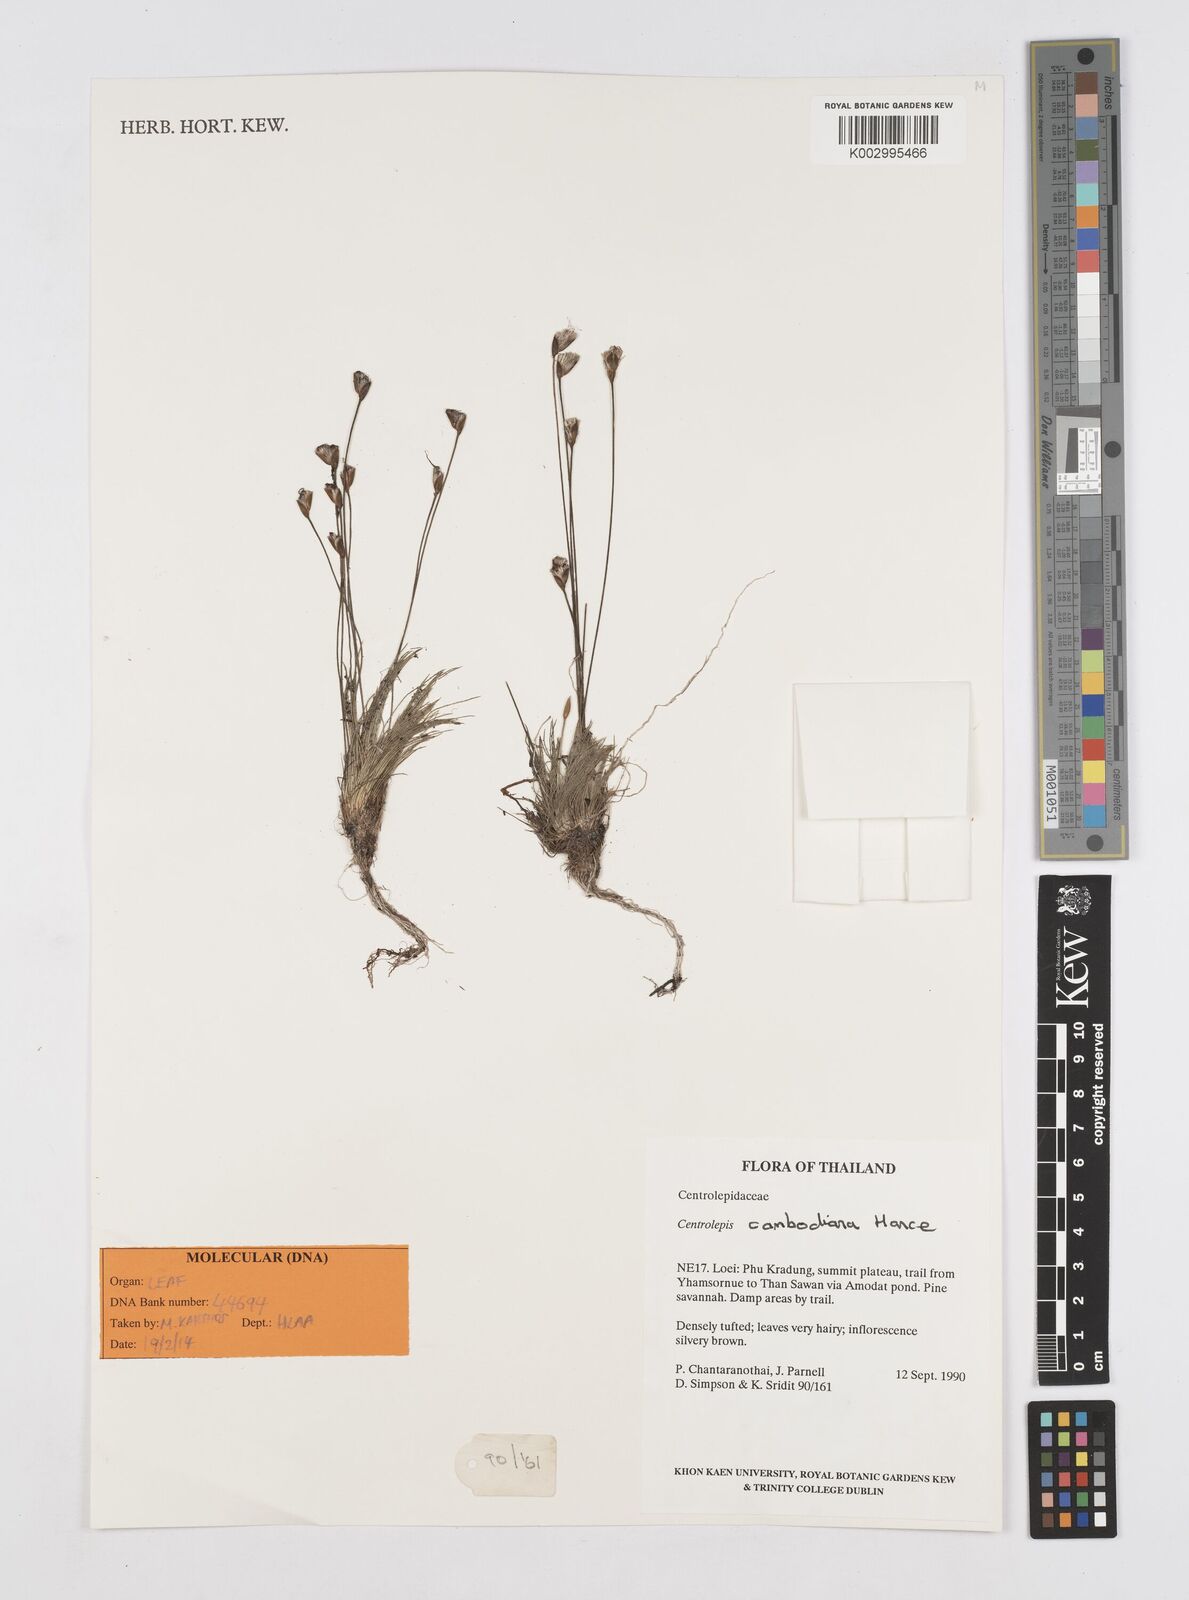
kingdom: Plantae
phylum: Tracheophyta
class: Liliopsida
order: Poales
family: Restionaceae
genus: Centrolepis
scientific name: Centrolepis cambodiana
